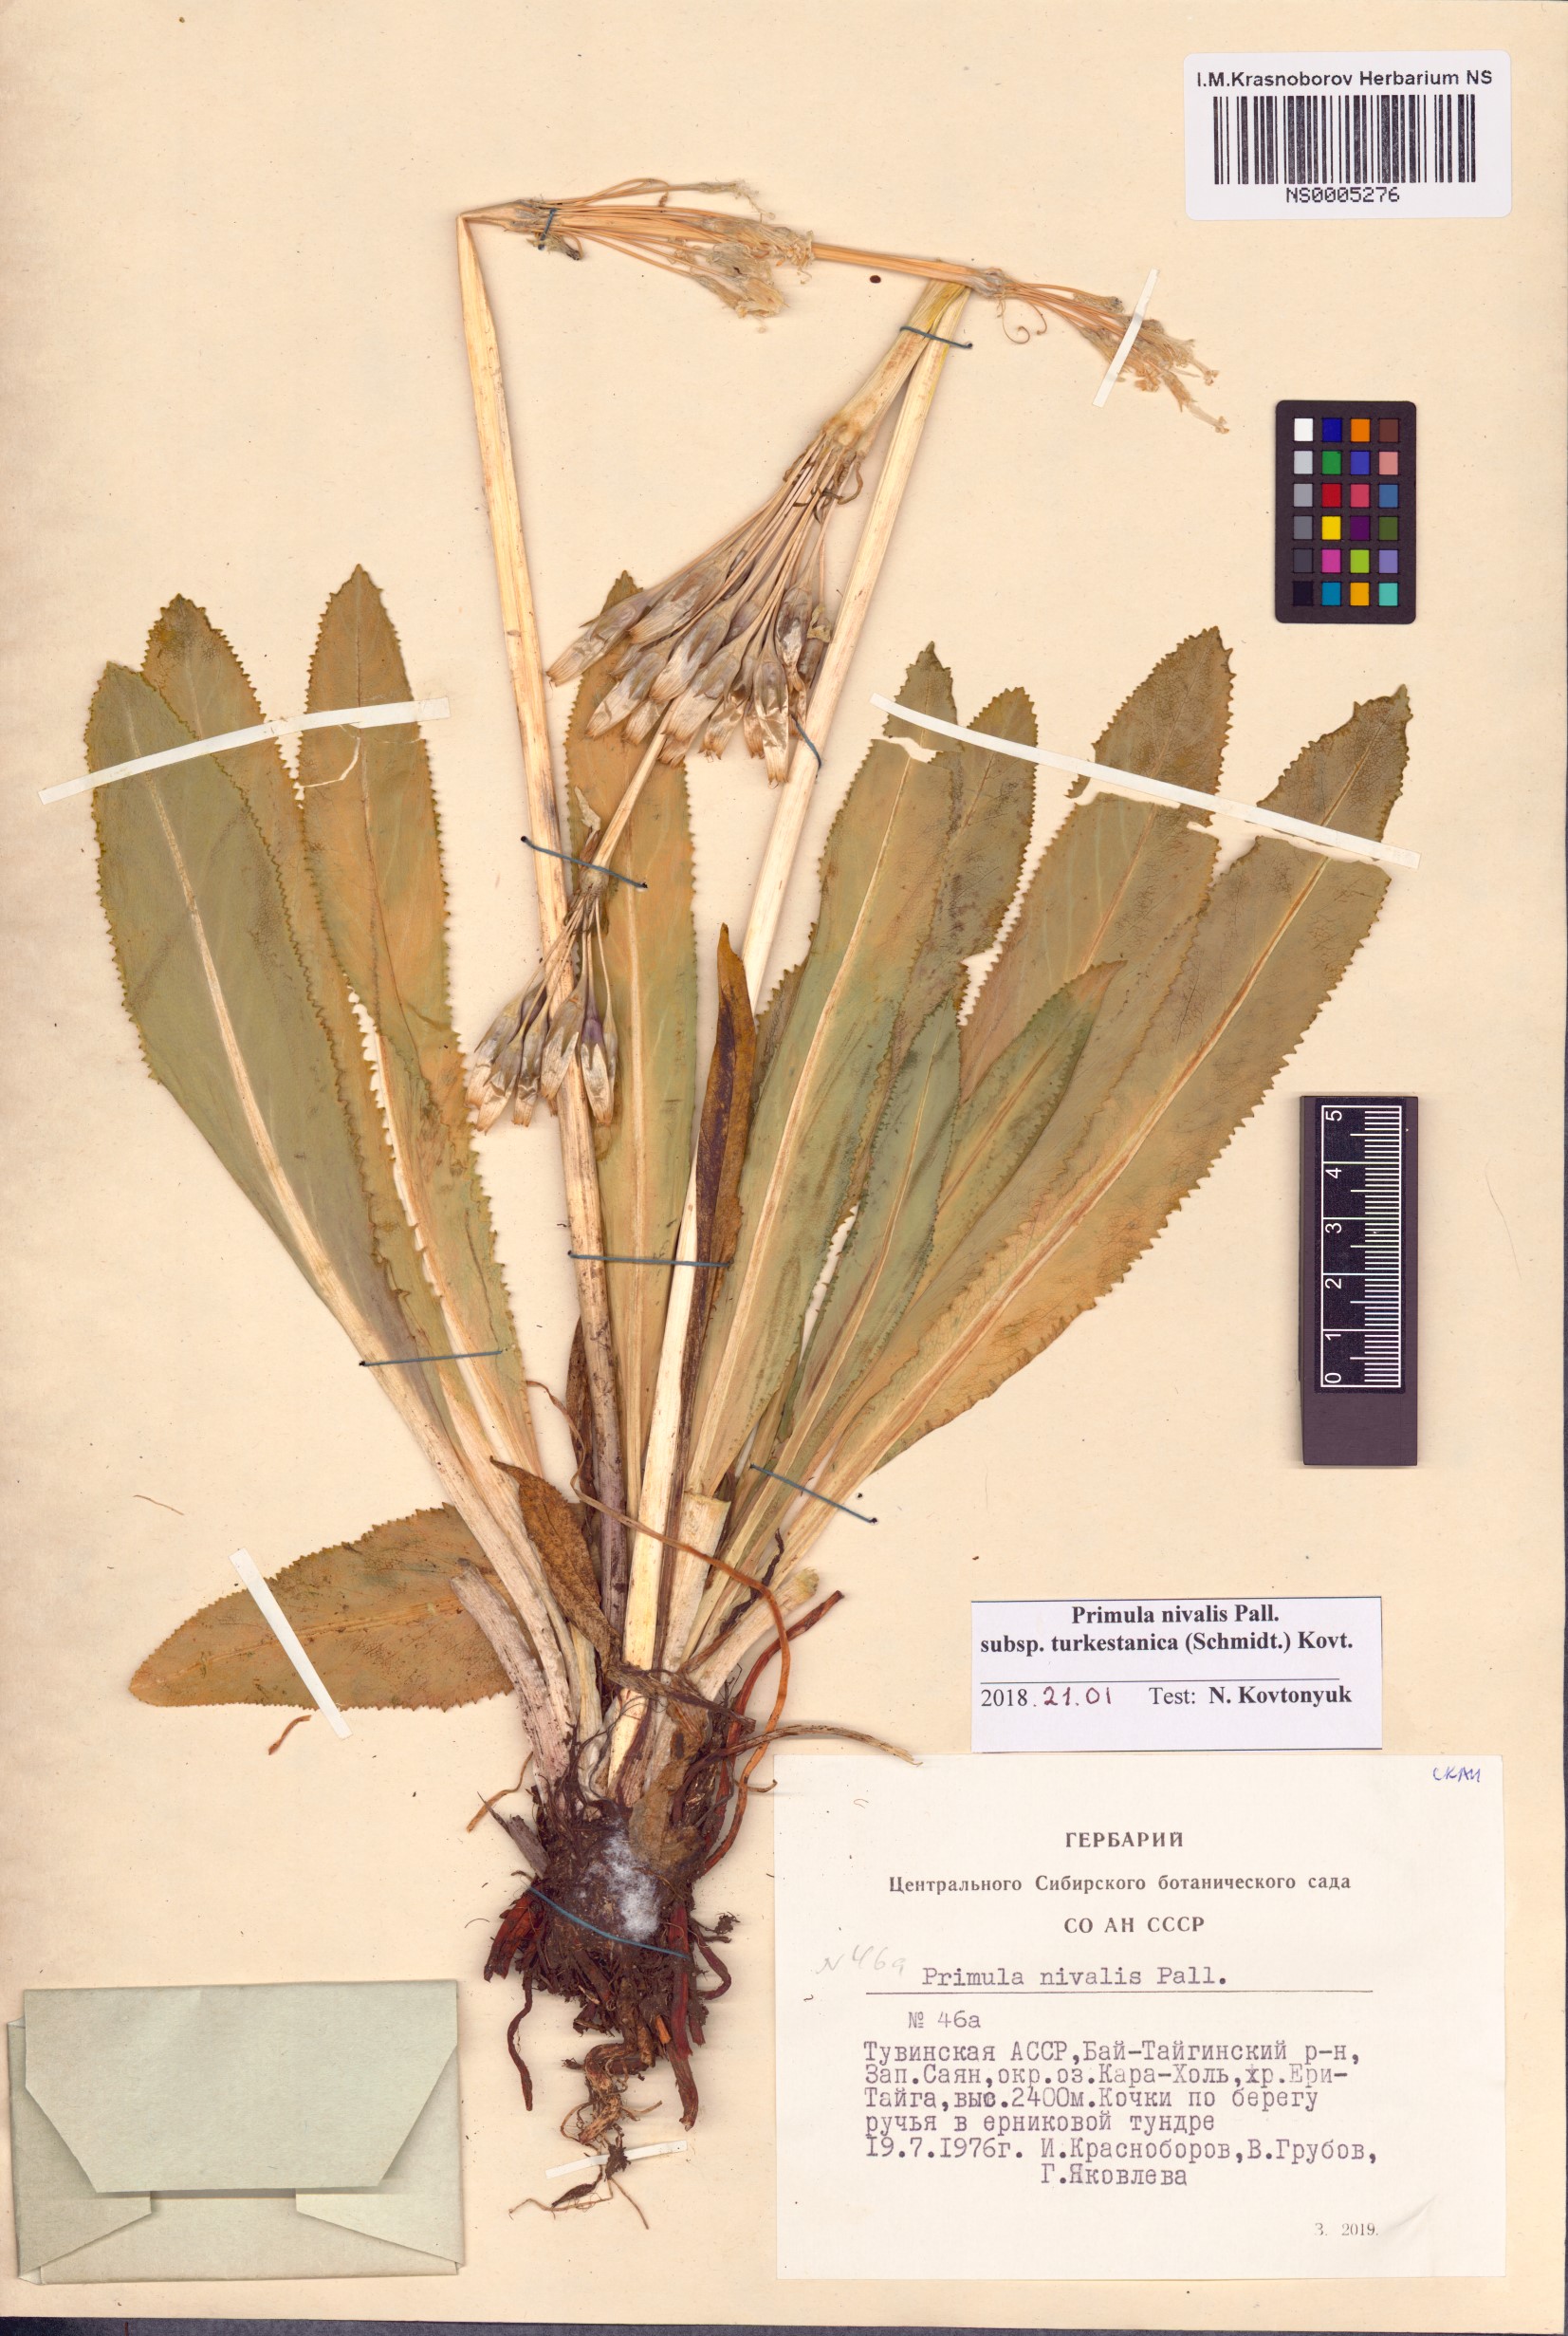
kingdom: Plantae
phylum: Tracheophyta
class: Magnoliopsida
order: Ericales
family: Primulaceae
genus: Primula
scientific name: Primula nivalis
